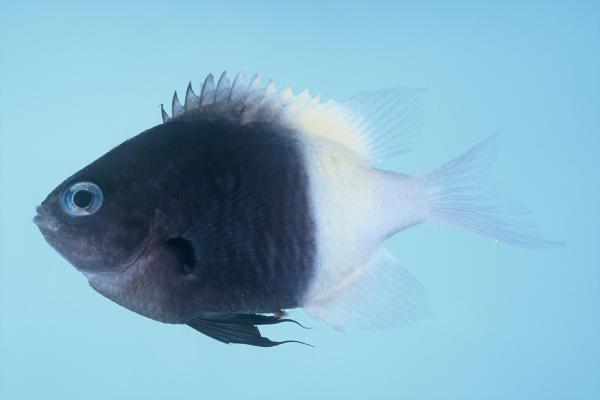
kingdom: Animalia
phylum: Chordata
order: Perciformes
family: Pomacentridae
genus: Chromis
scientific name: Chromis dimidiata
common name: Half-and-half chromis
